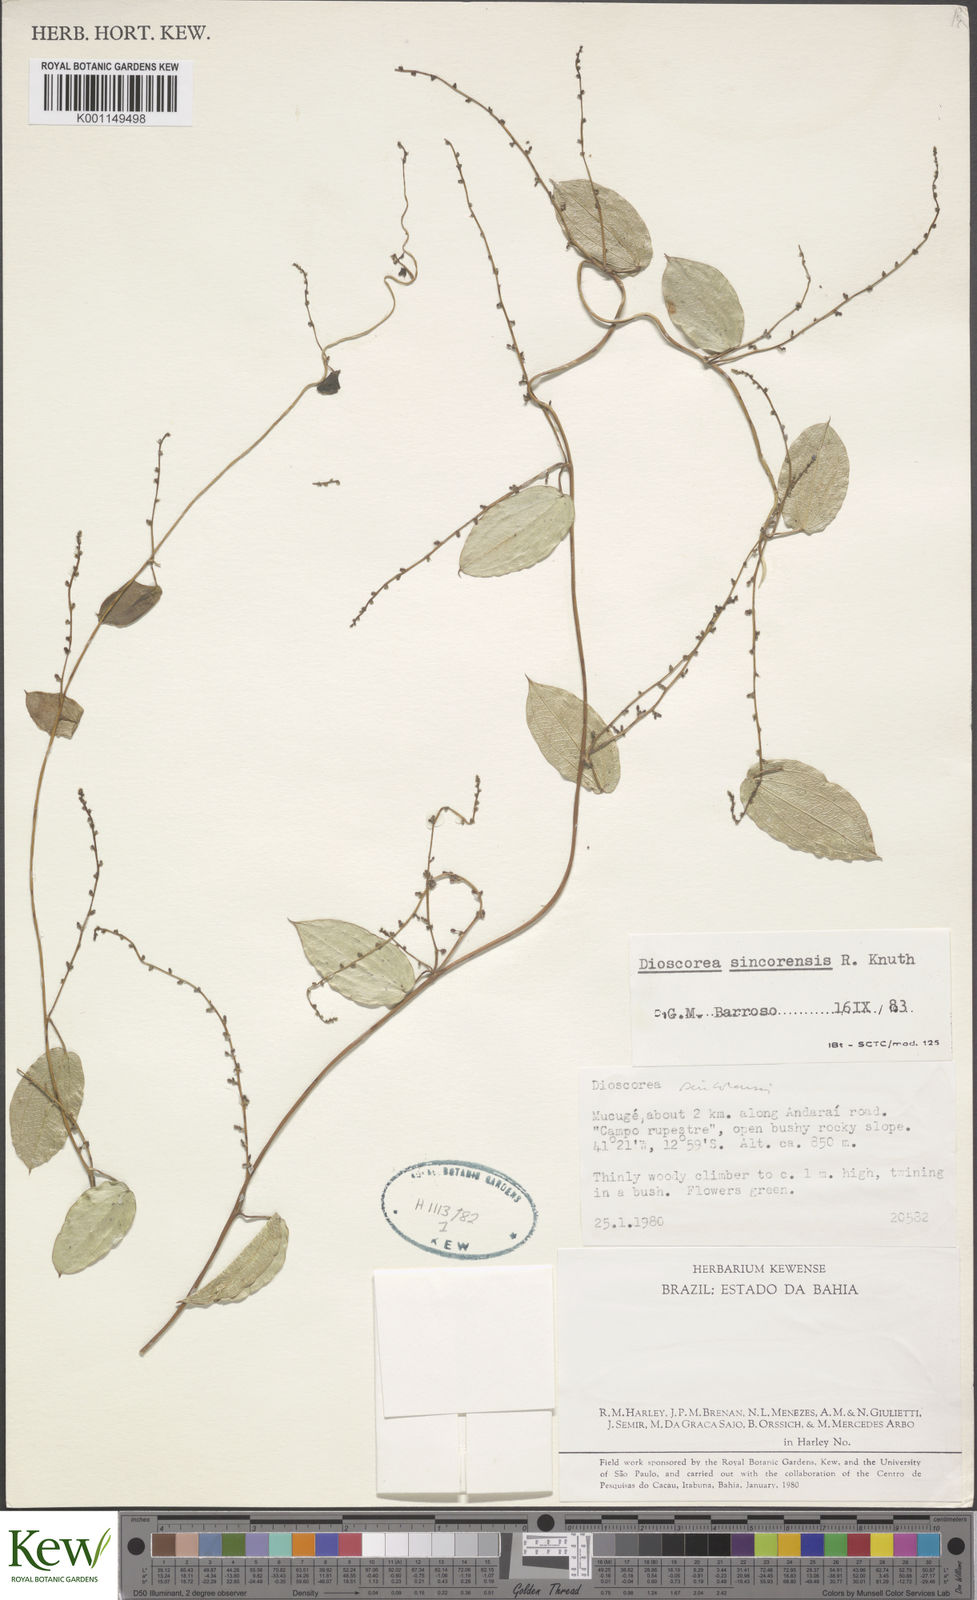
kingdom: Plantae
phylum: Tracheophyta
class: Liliopsida
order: Dioscoreales
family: Dioscoreaceae
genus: Dioscorea
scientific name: Dioscorea sincorensis
